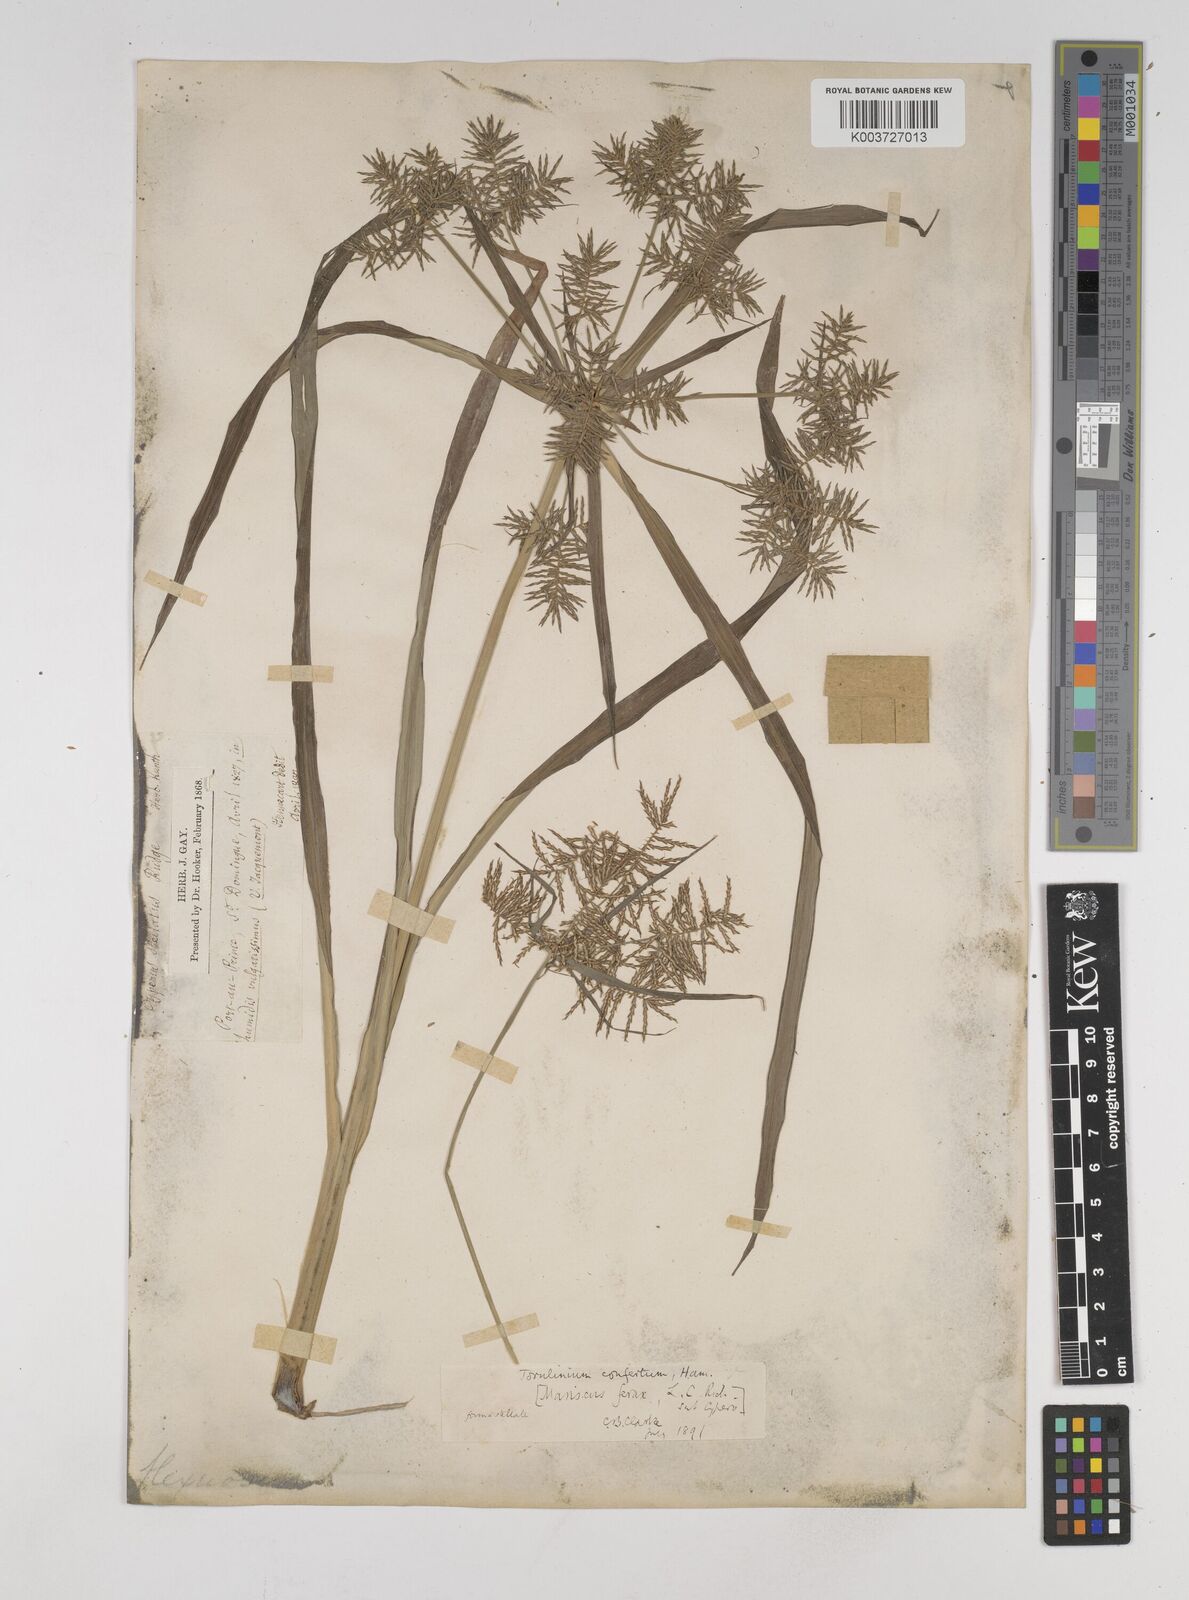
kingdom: Plantae
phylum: Tracheophyta
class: Liliopsida
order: Poales
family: Cyperaceae
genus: Cyperus
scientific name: Cyperus odoratus
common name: Fragrant flatsedge
